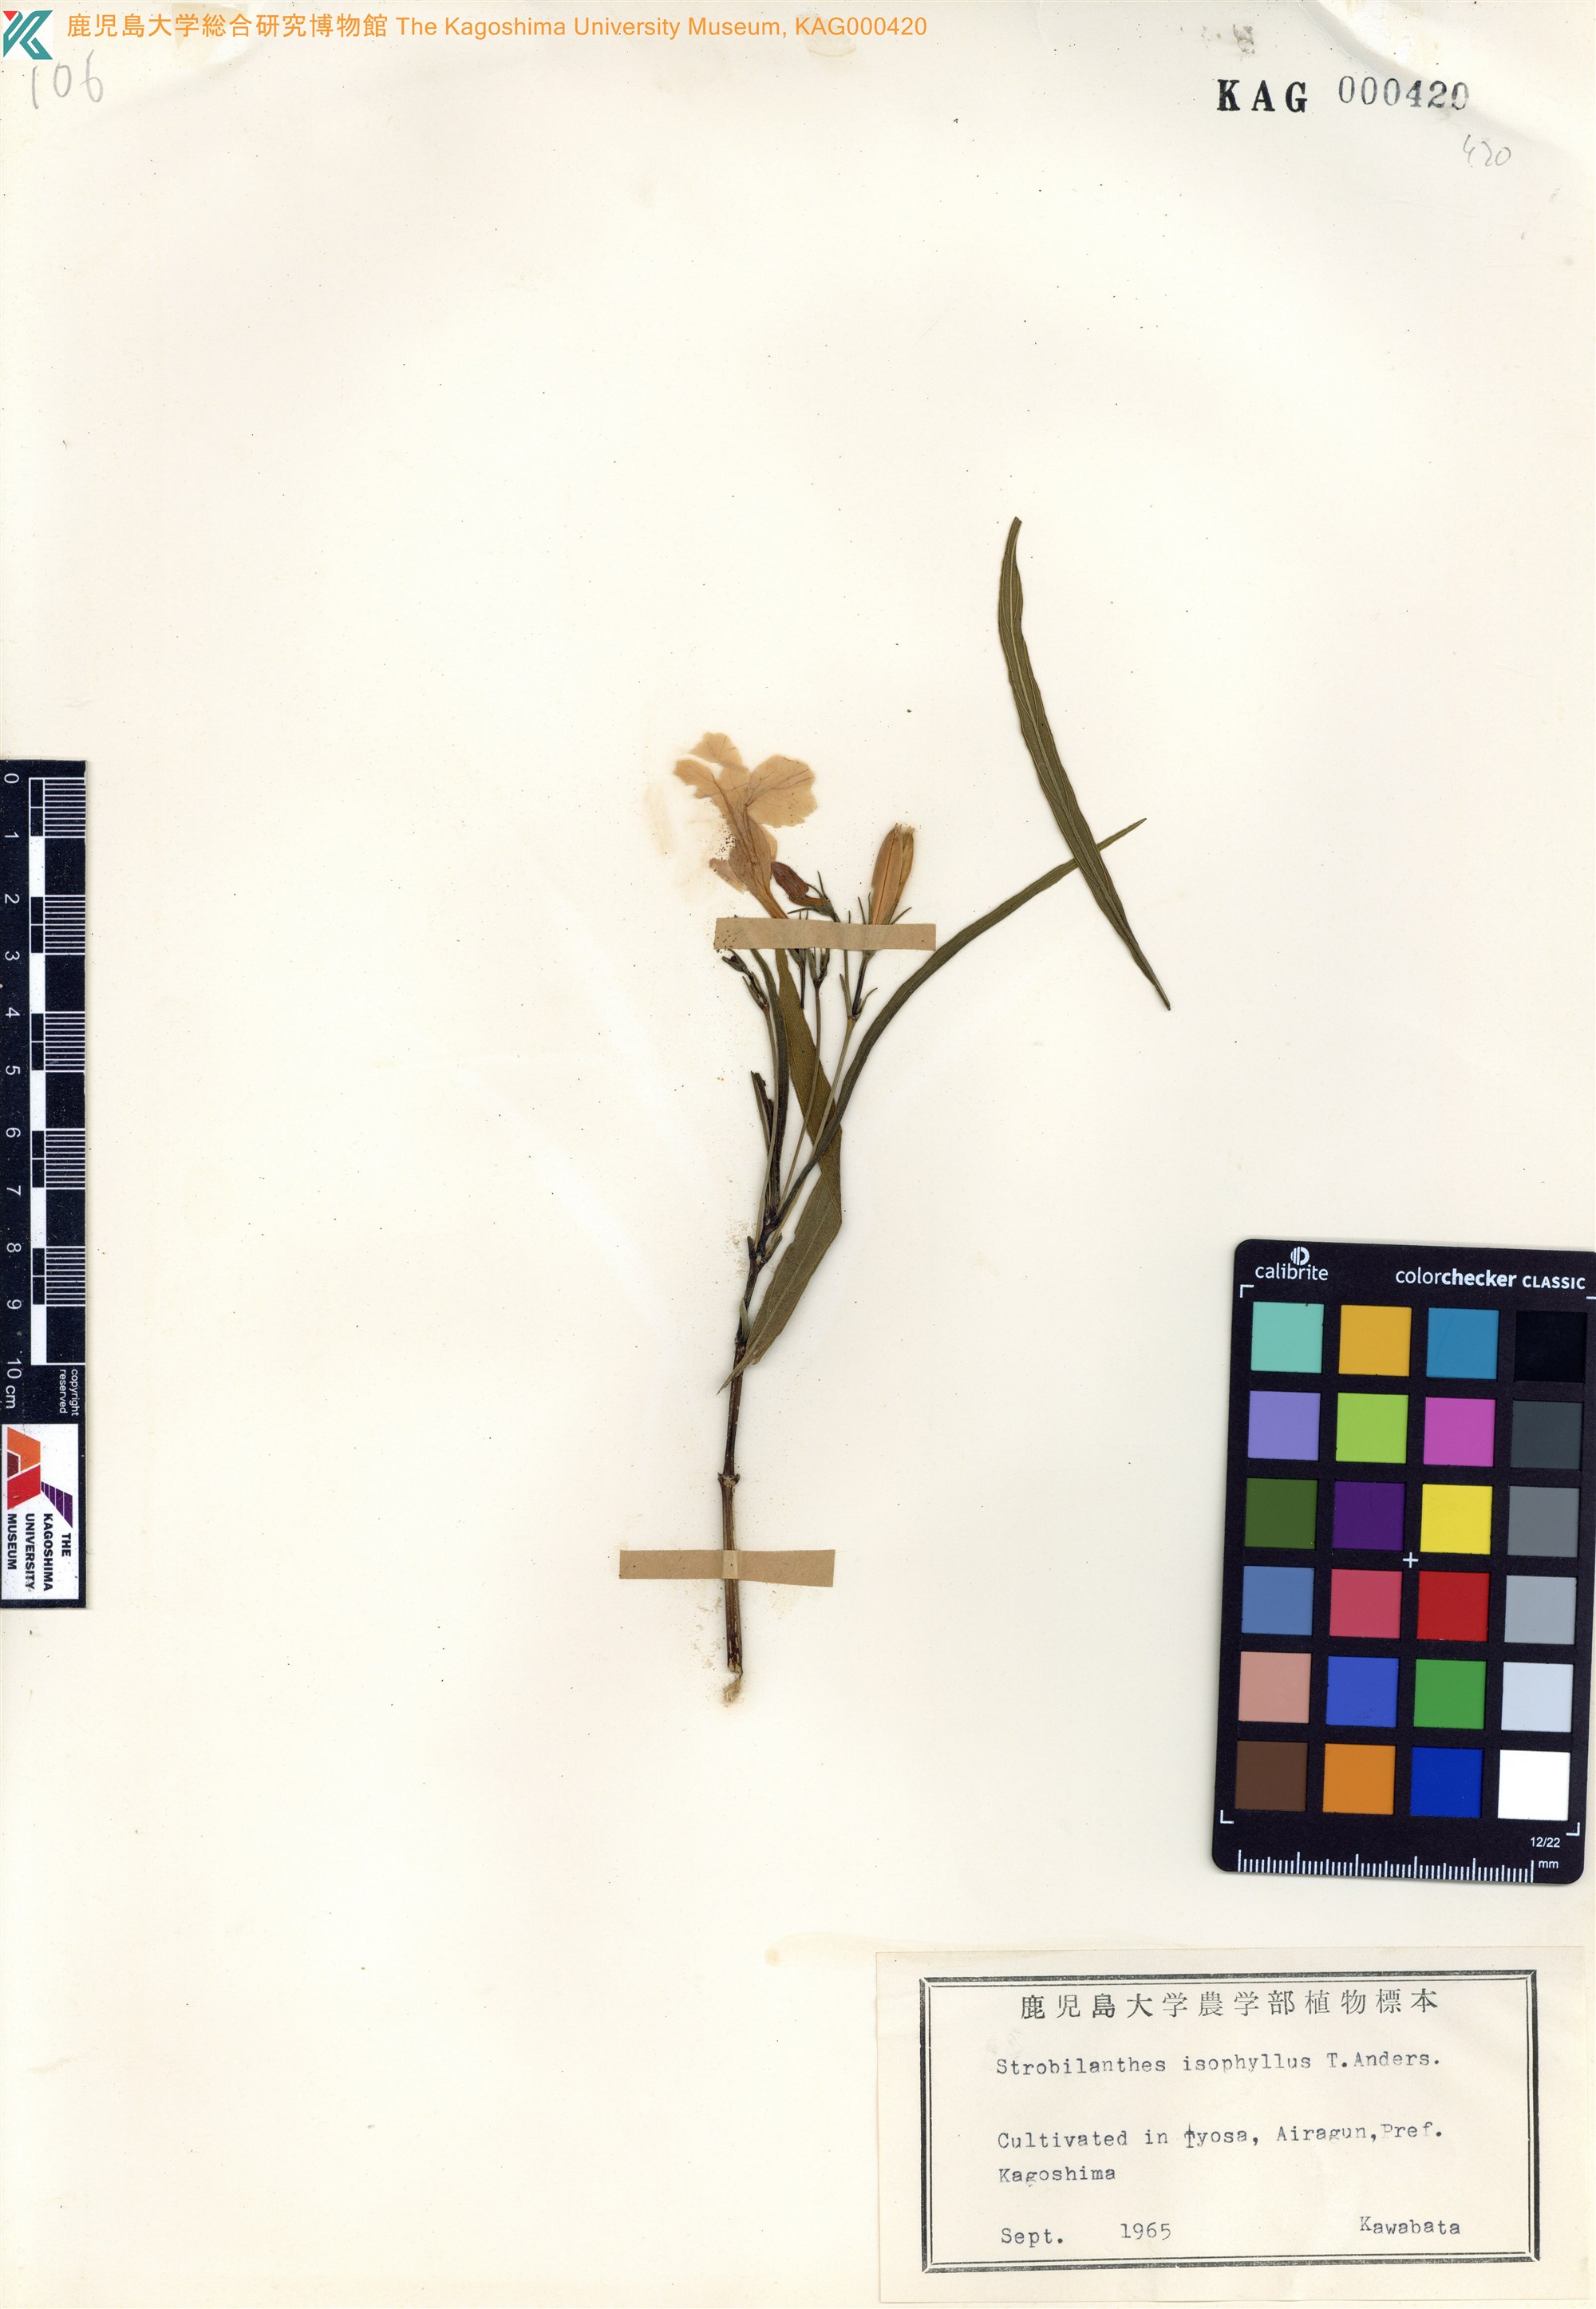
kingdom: Plantae
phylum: Tracheophyta
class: Magnoliopsida
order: Lamiales
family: Acanthaceae
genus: Strobilanthes
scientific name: Strobilanthes anisophylla
